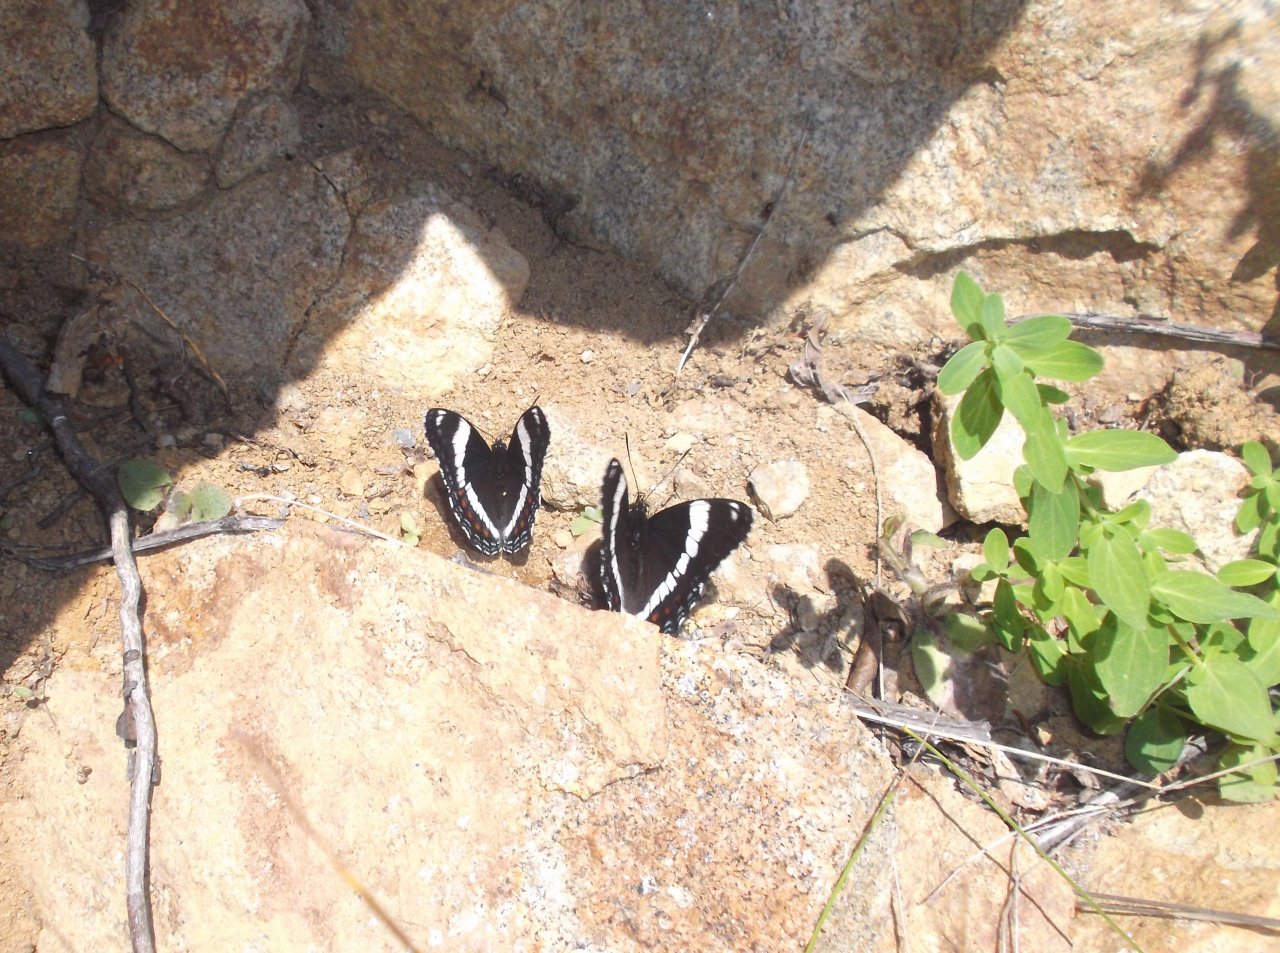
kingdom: Animalia
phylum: Arthropoda
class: Insecta
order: Lepidoptera
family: Nymphalidae
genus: Limenitis
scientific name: Limenitis arthemis
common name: Red-spotted Admiral
